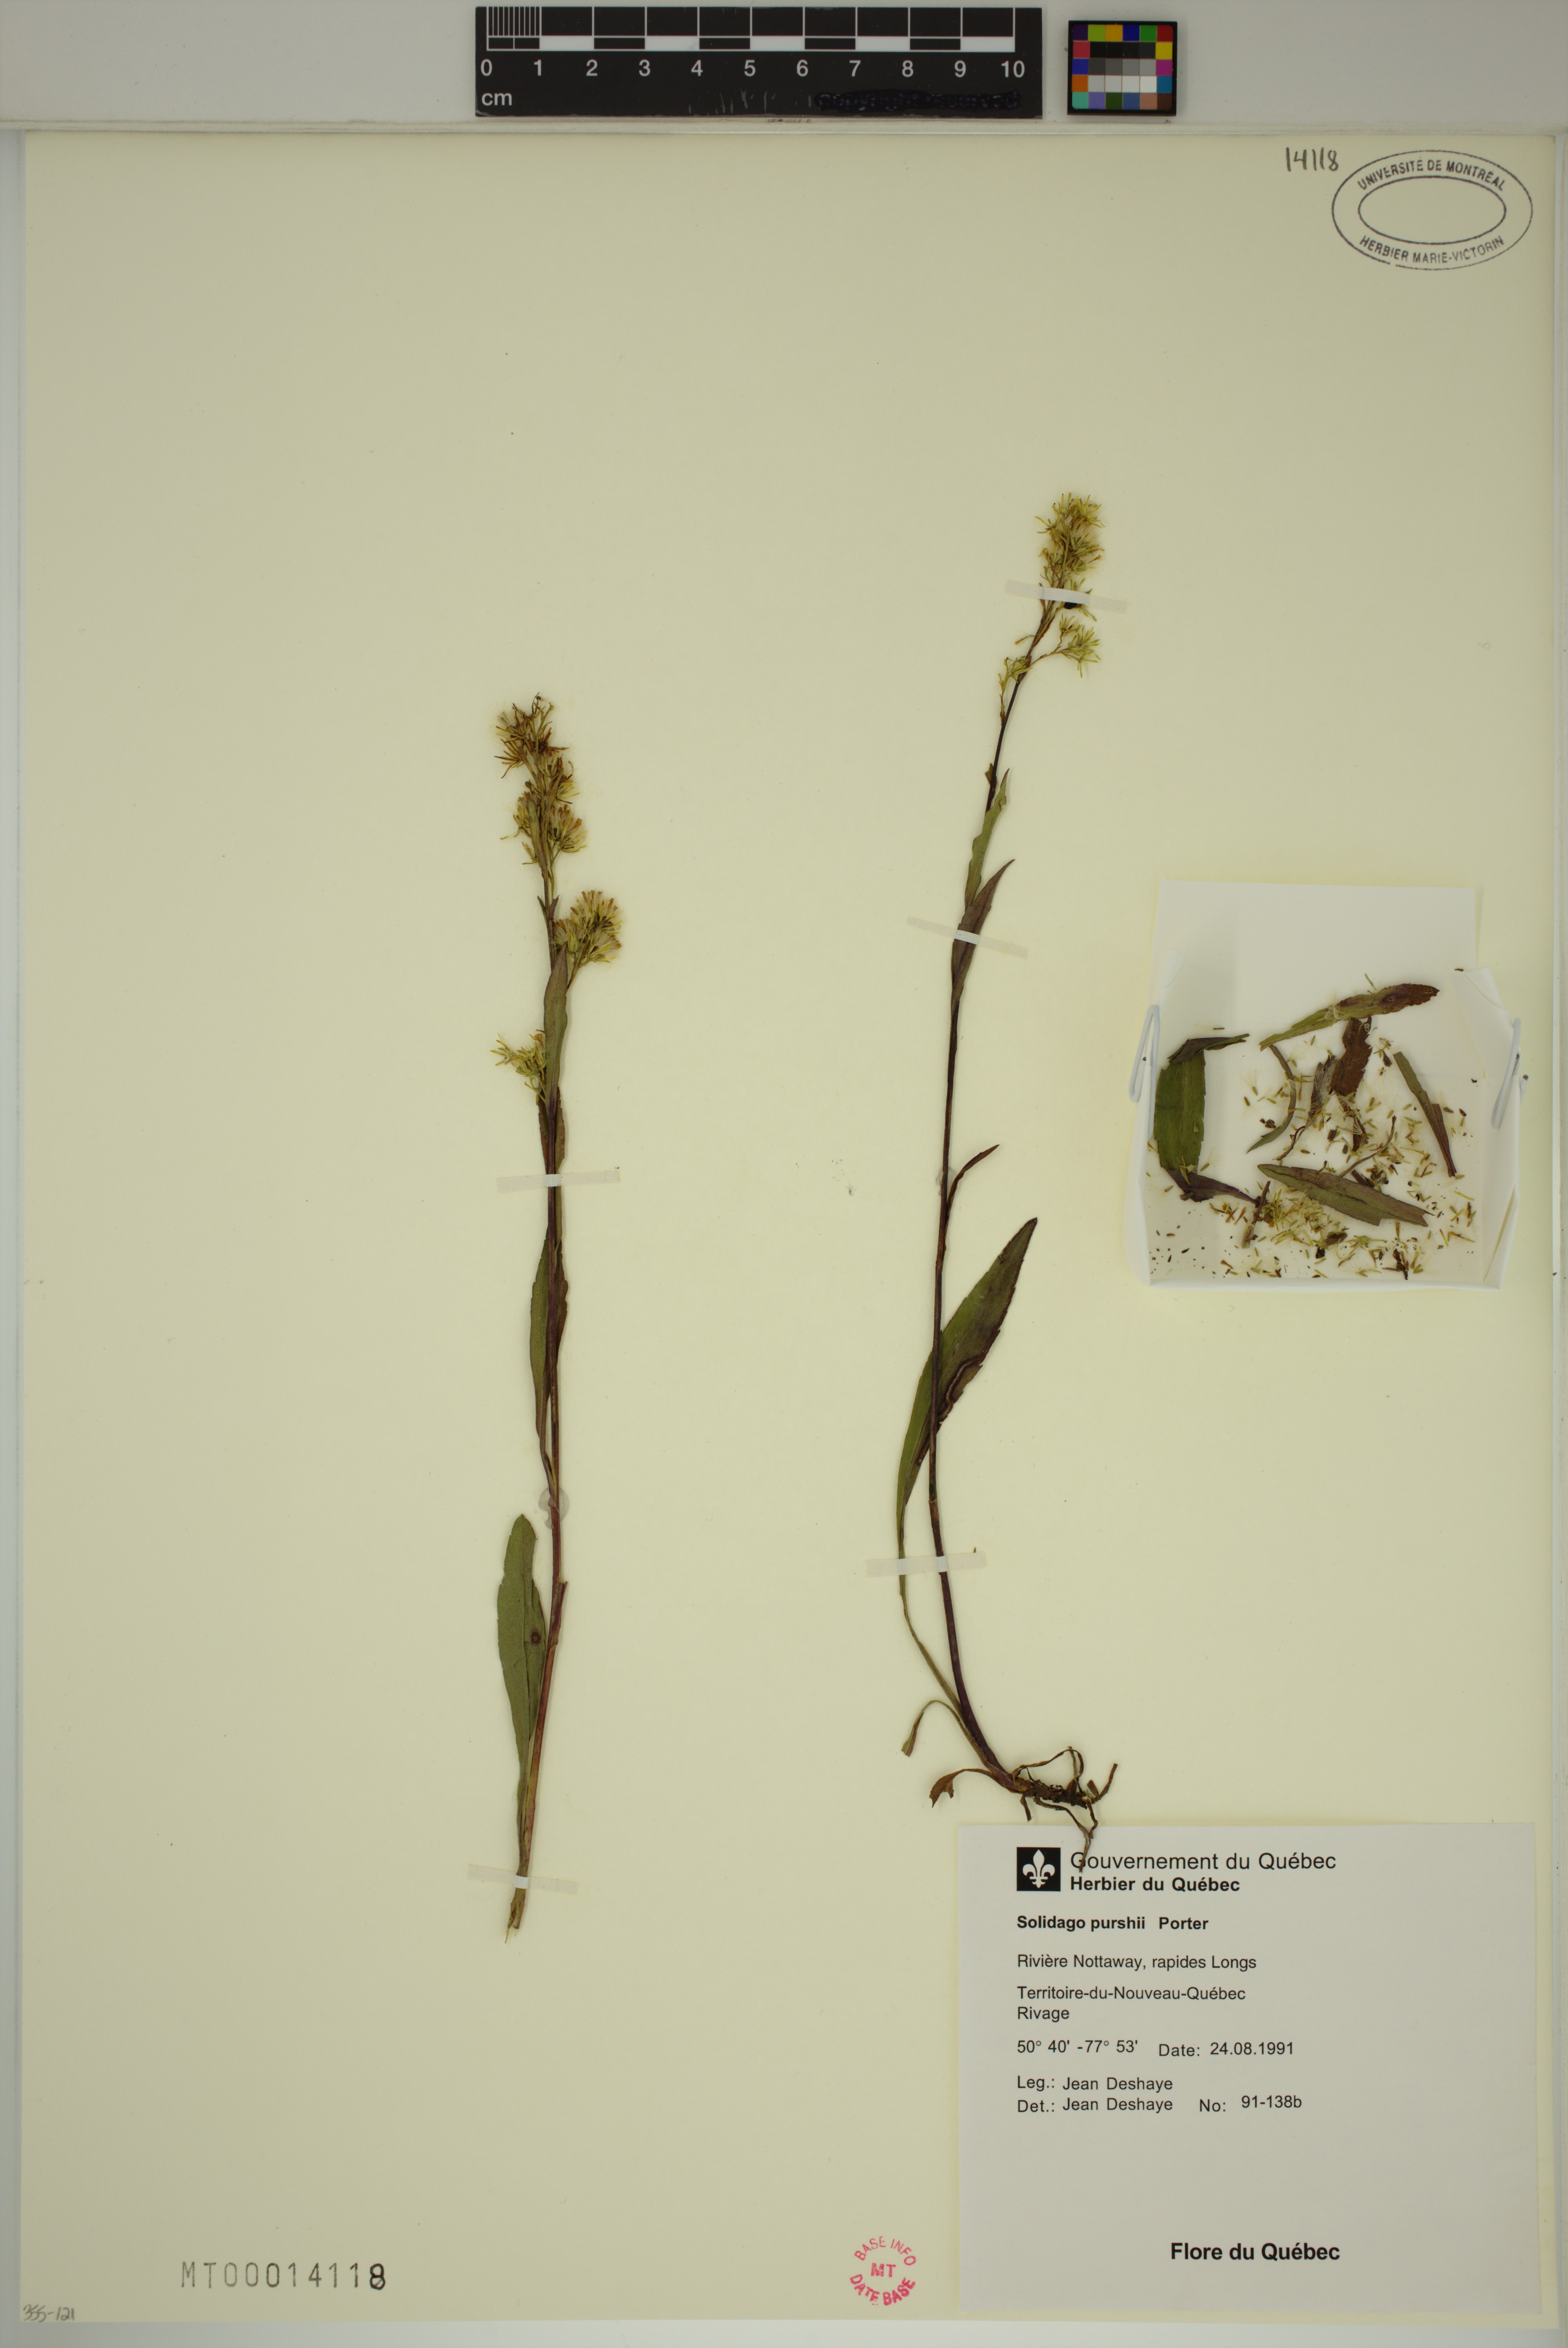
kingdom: Plantae
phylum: Tracheophyta
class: Magnoliopsida
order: Asterales
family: Asteraceae
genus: Solidago
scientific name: Solidago uliginosa
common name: Bog goldenrod
